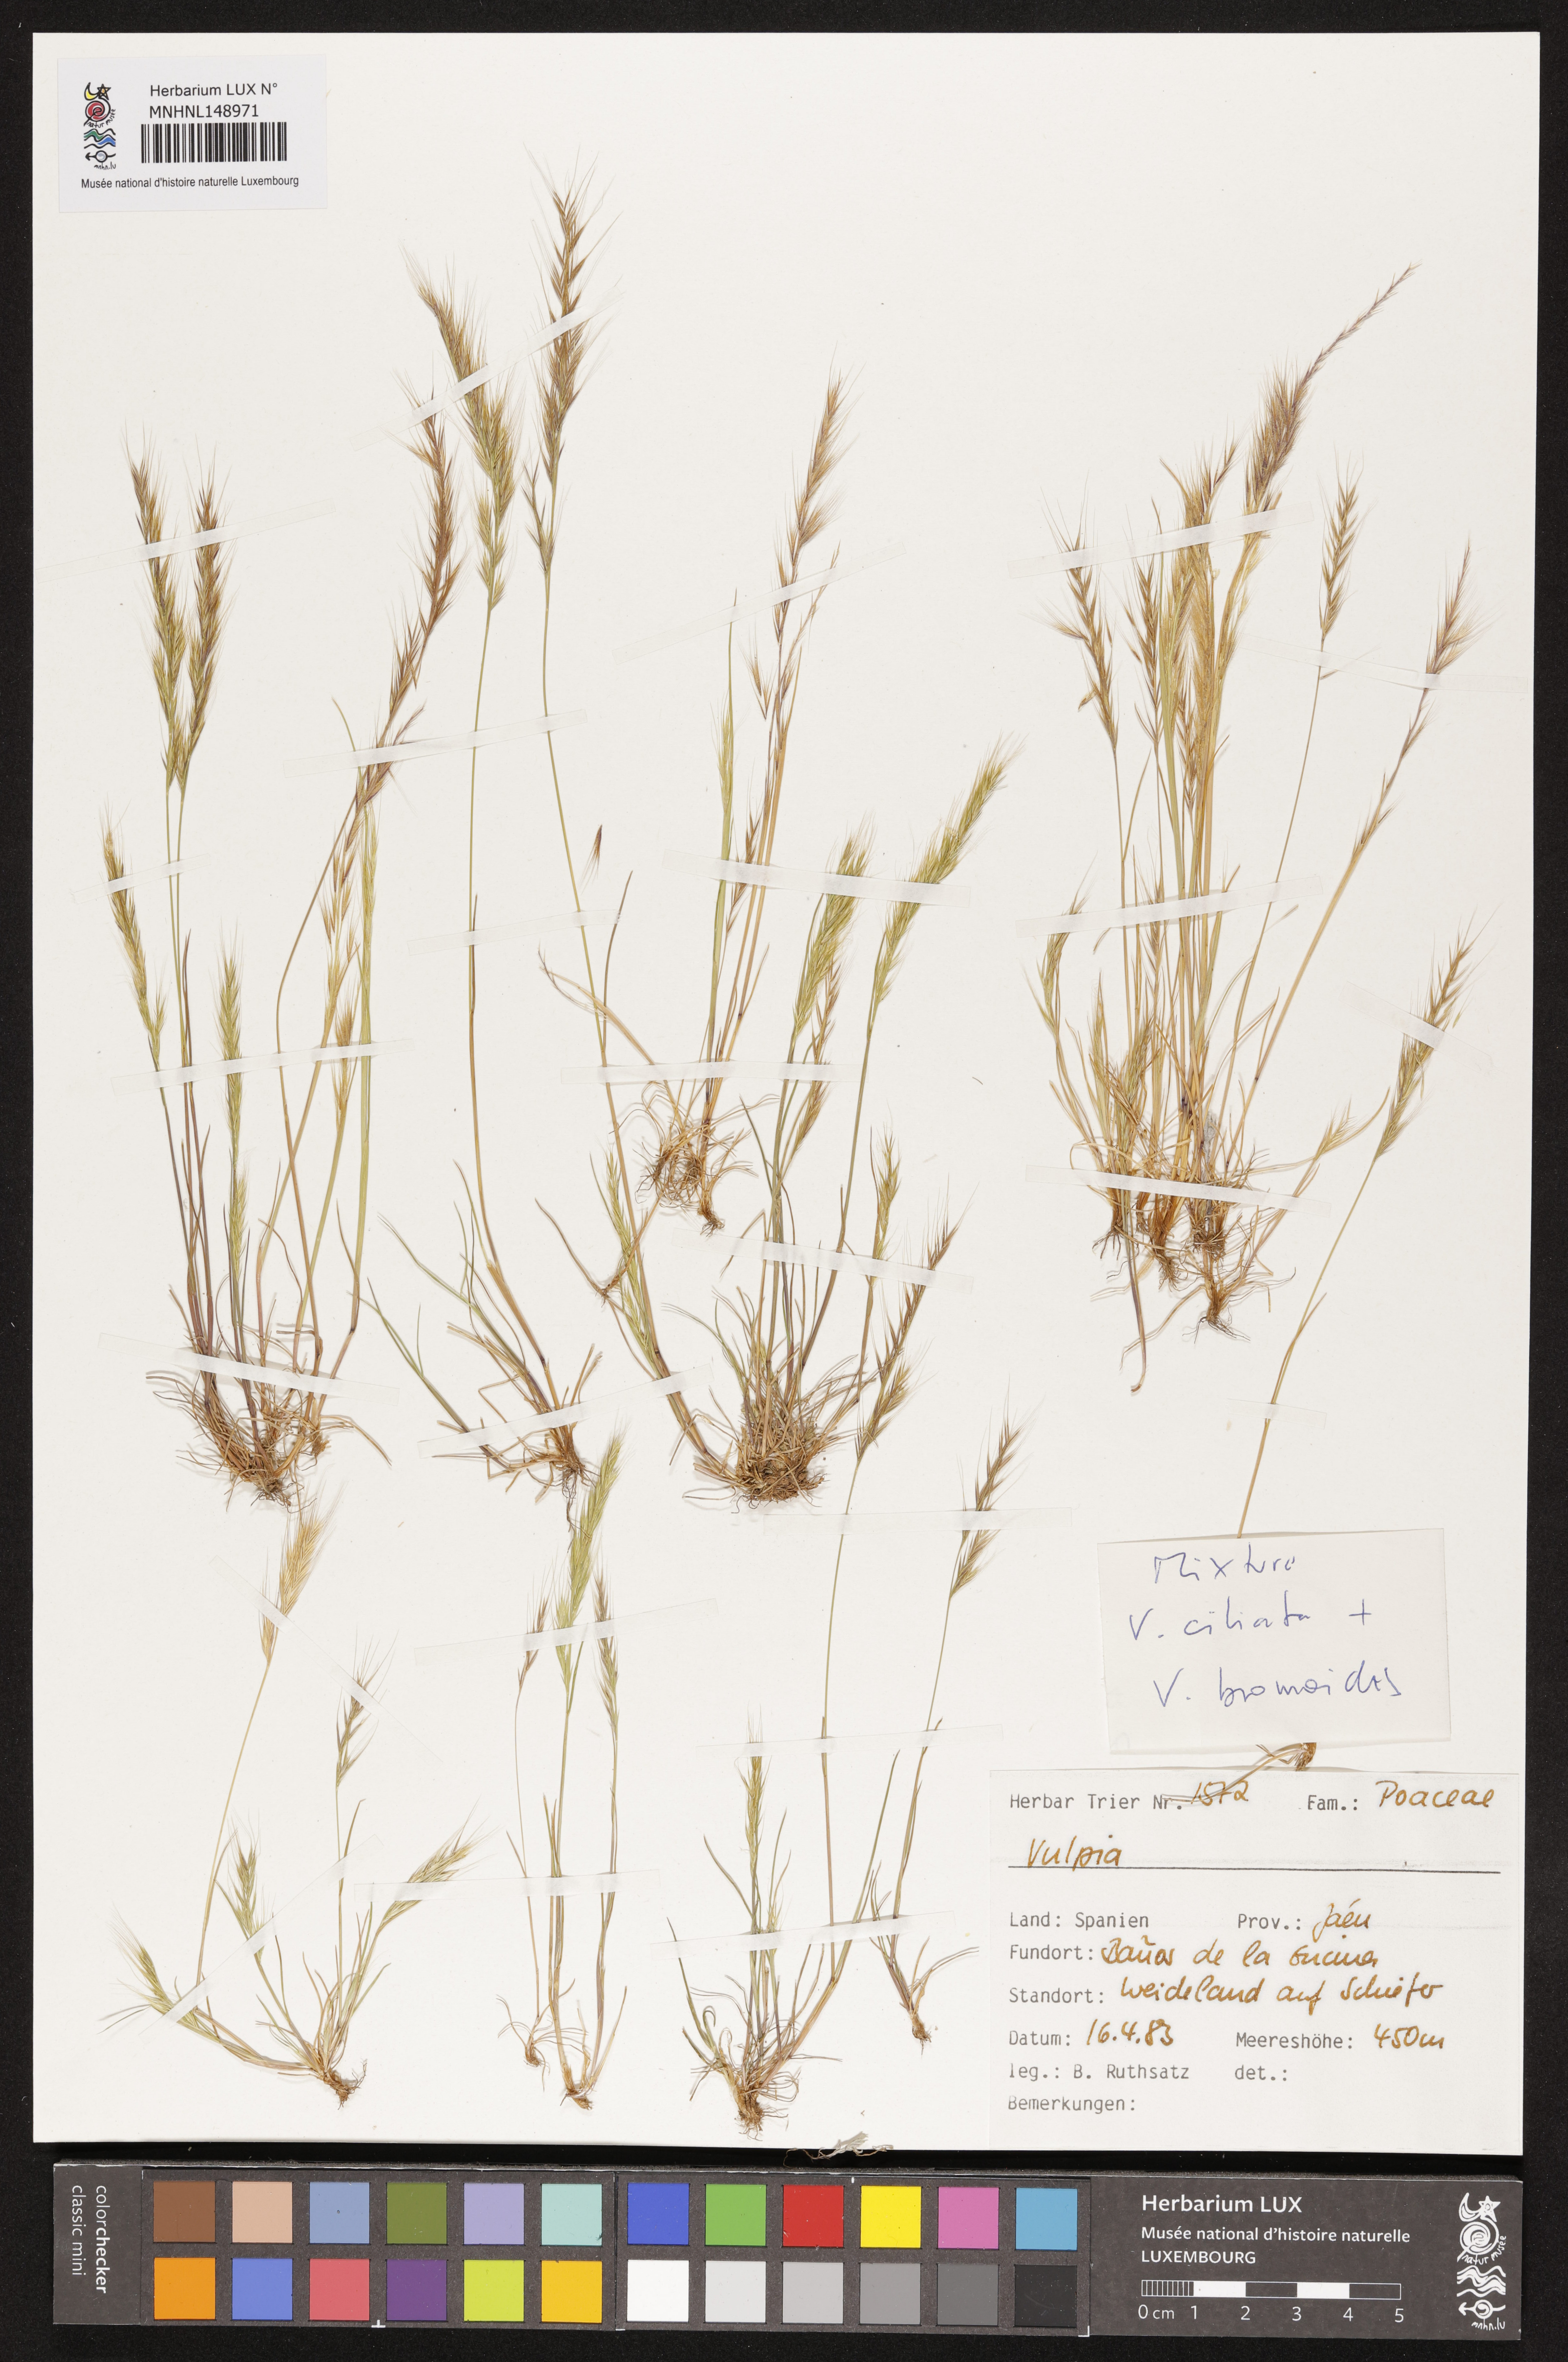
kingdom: Plantae
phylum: Tracheophyta
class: Liliopsida
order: Poales
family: Poaceae
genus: Festuca
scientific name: Festuca
